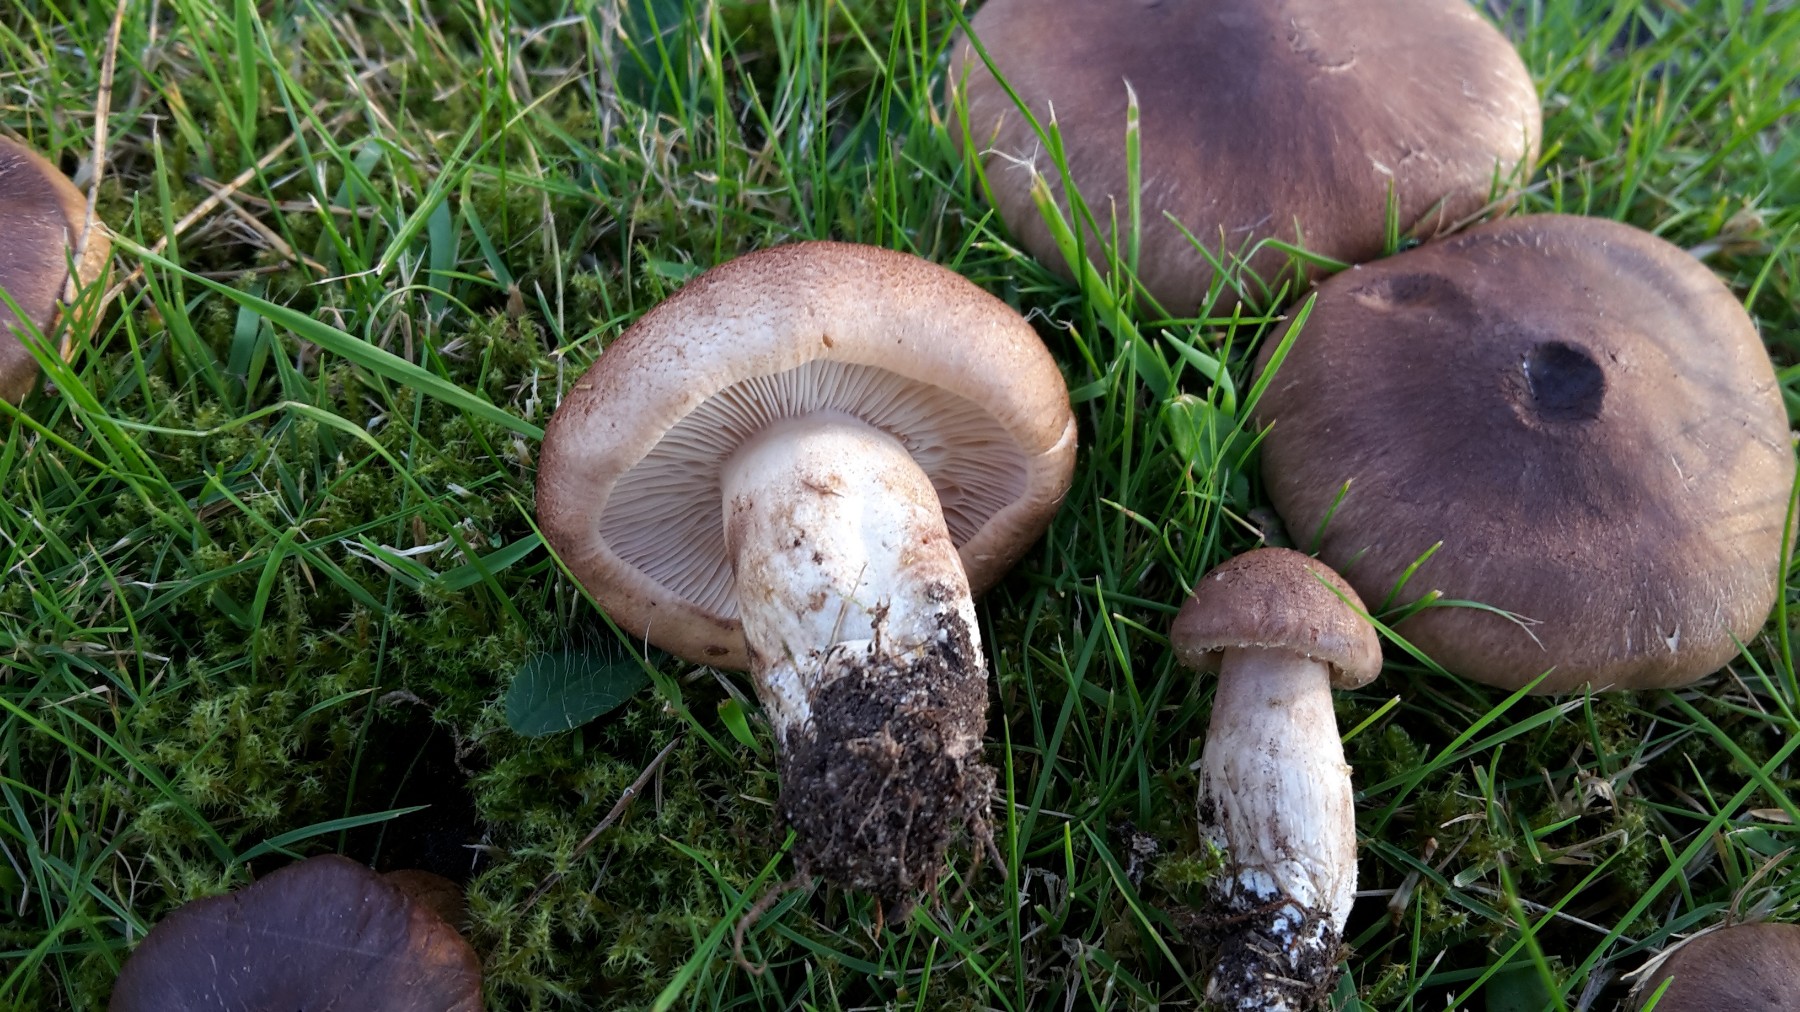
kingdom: Fungi
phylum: Basidiomycota
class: Agaricomycetes
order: Agaricales
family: Tricholomataceae
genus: Tricholoma
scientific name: Tricholoma imbricatum
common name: skællet ridderhat
